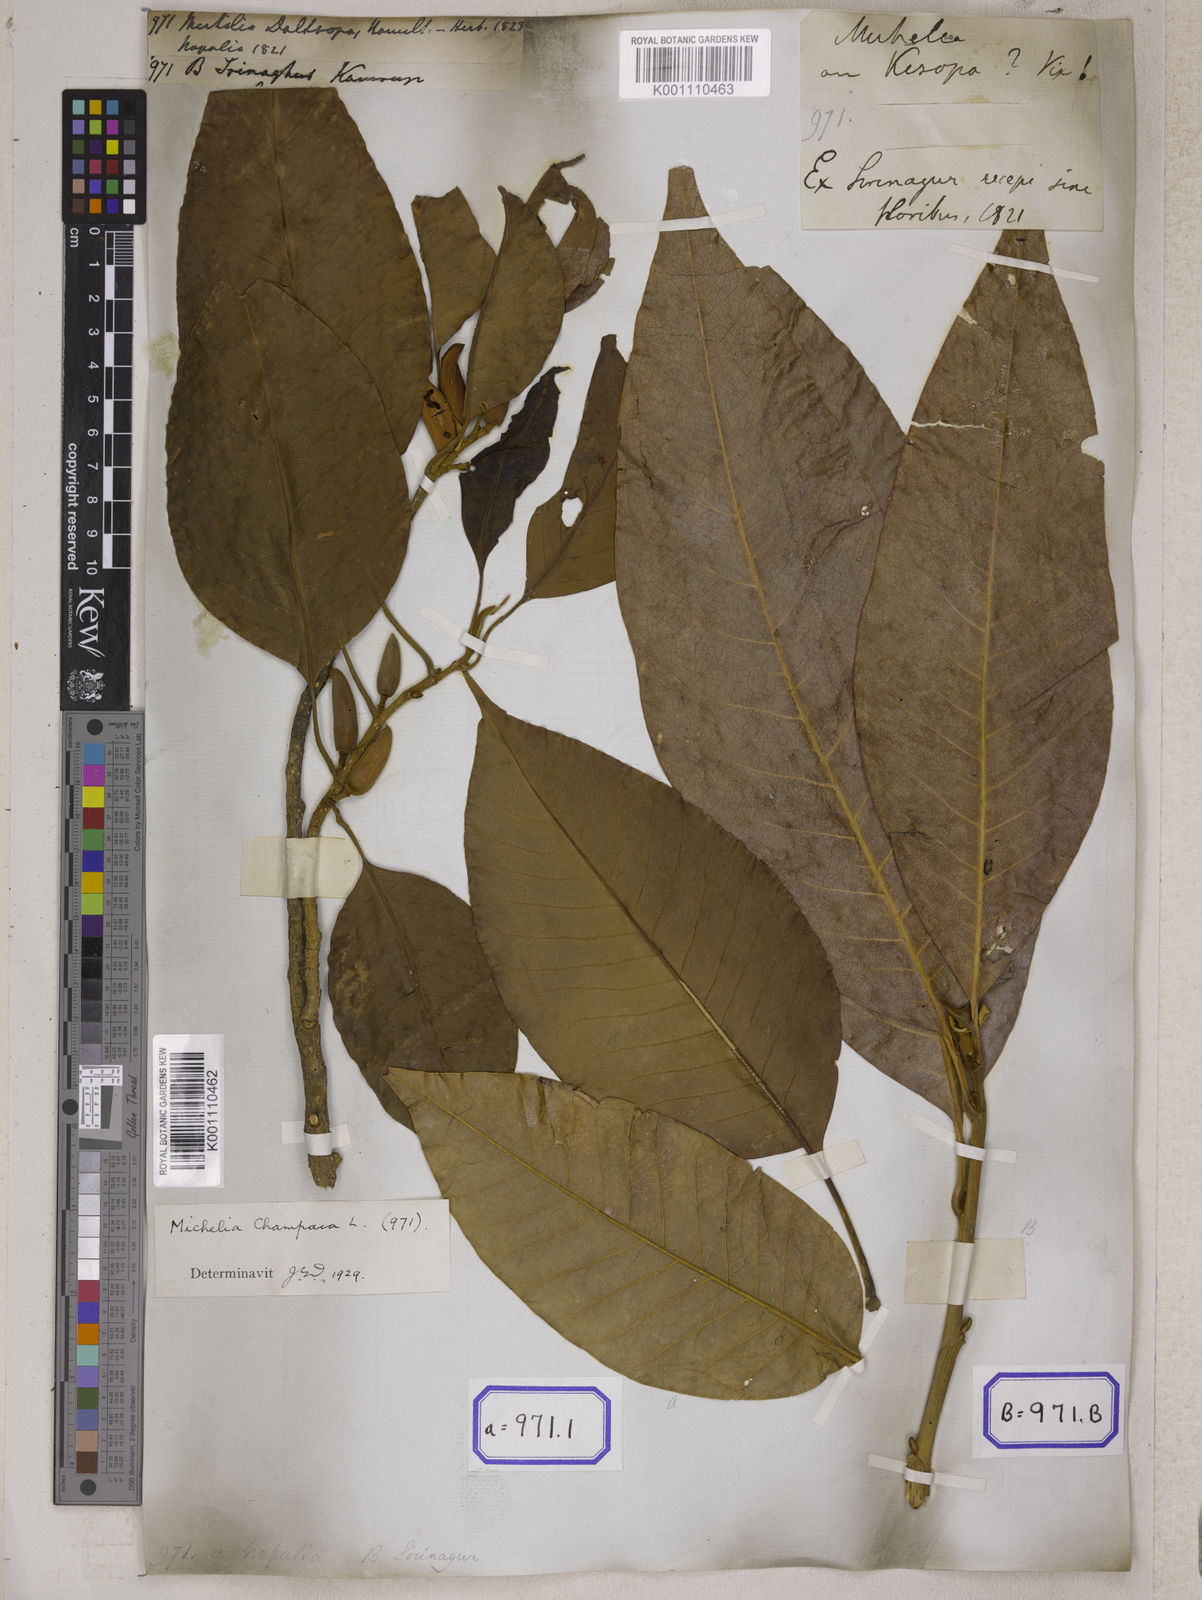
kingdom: Plantae
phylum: Tracheophyta
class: Magnoliopsida
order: Magnoliales
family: Magnoliaceae
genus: Michelia
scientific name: Michelia
